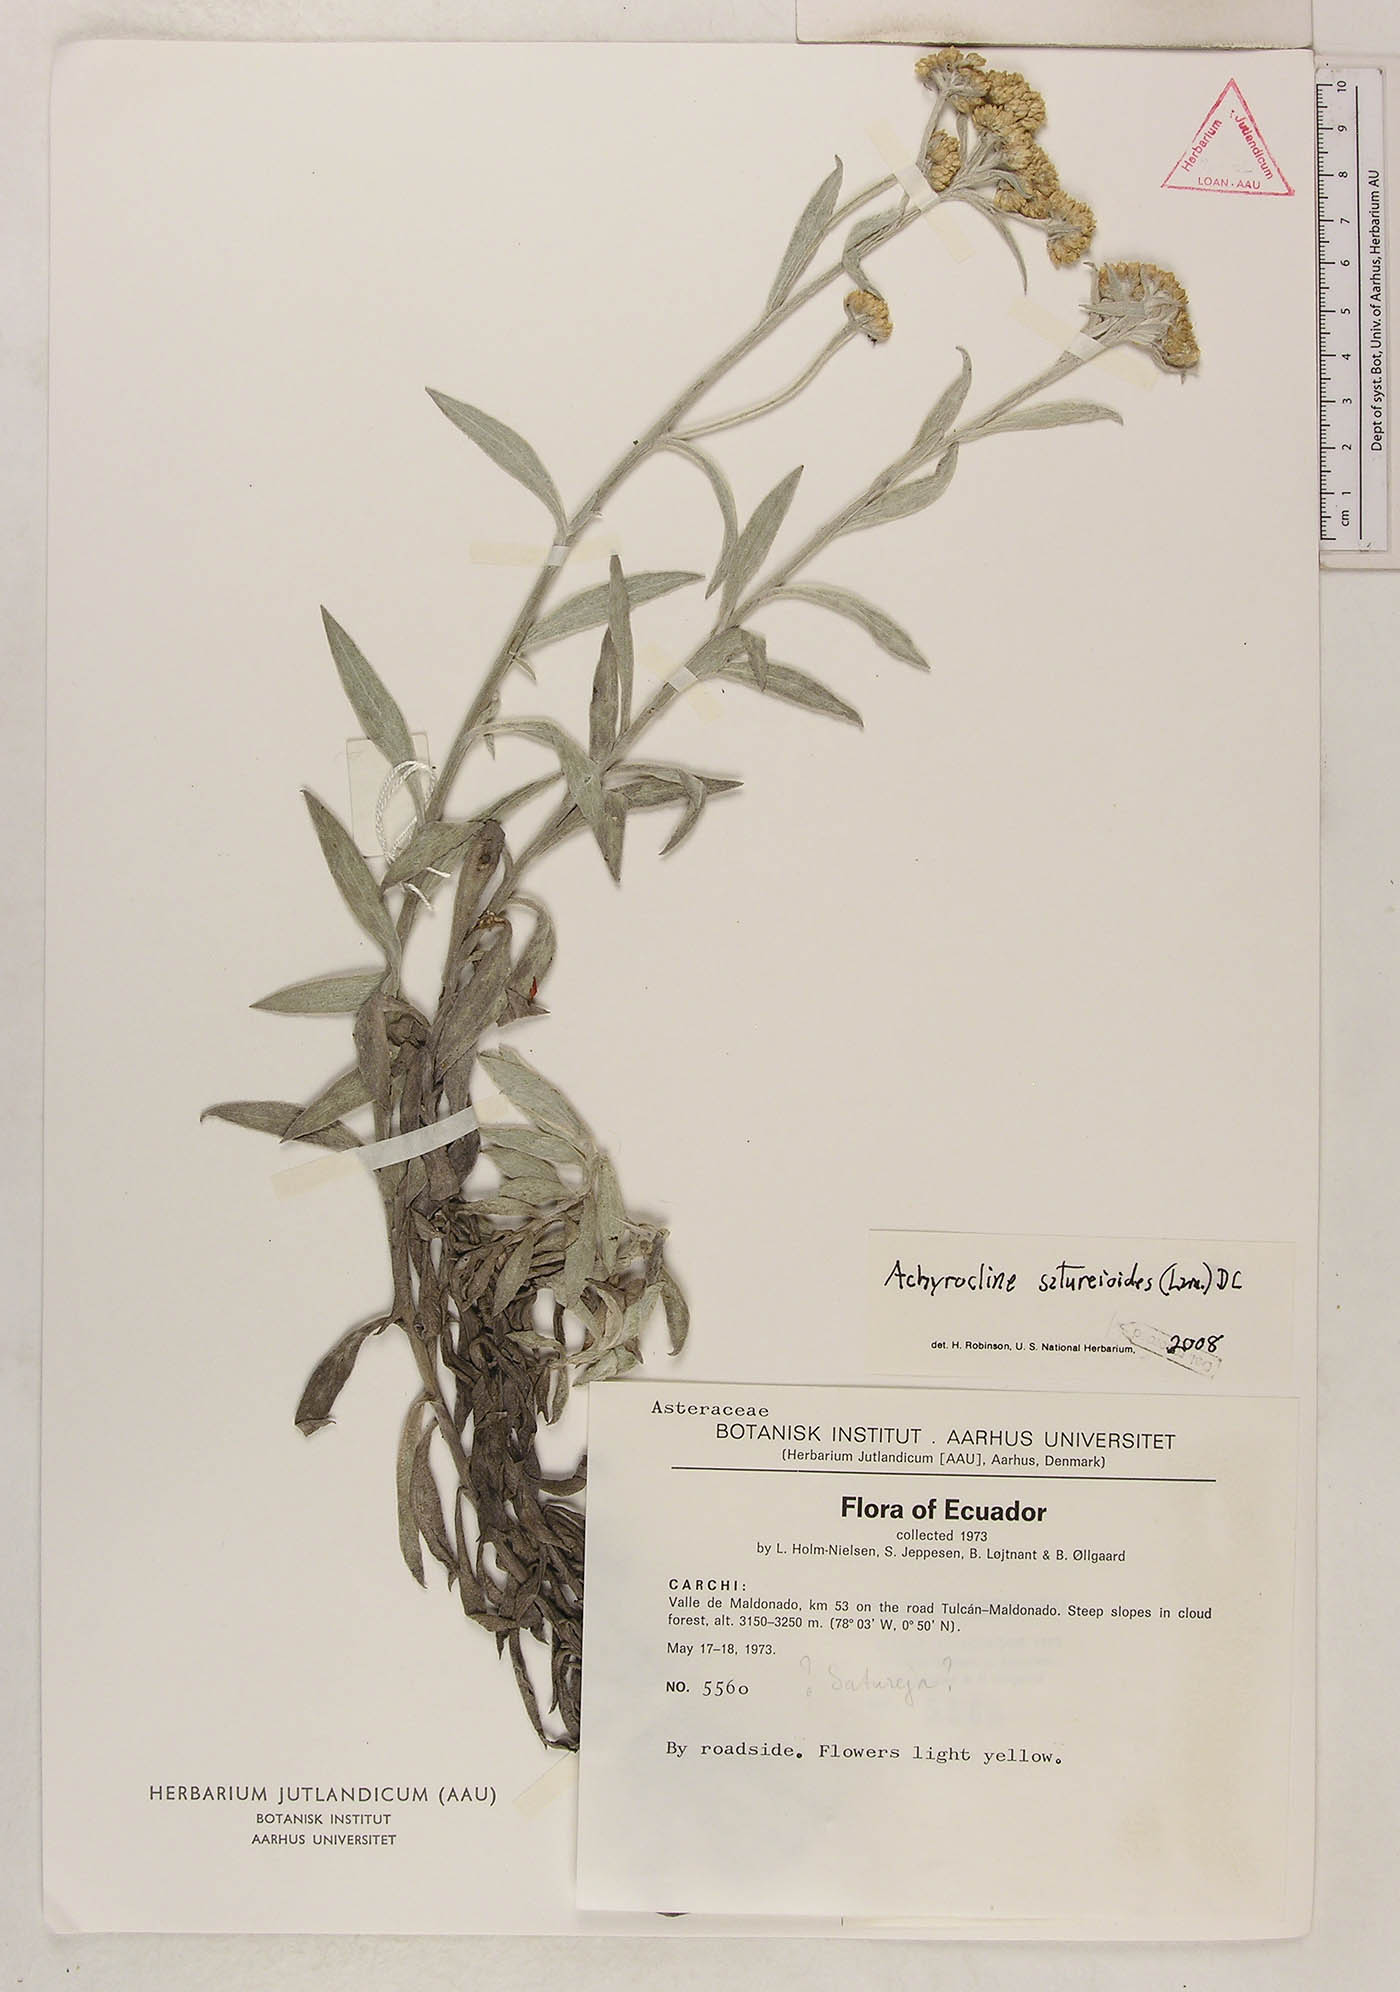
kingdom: Plantae
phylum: Tracheophyta
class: Magnoliopsida
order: Asterales
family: Asteraceae
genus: Achyrocline
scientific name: Achyrocline satureioides
